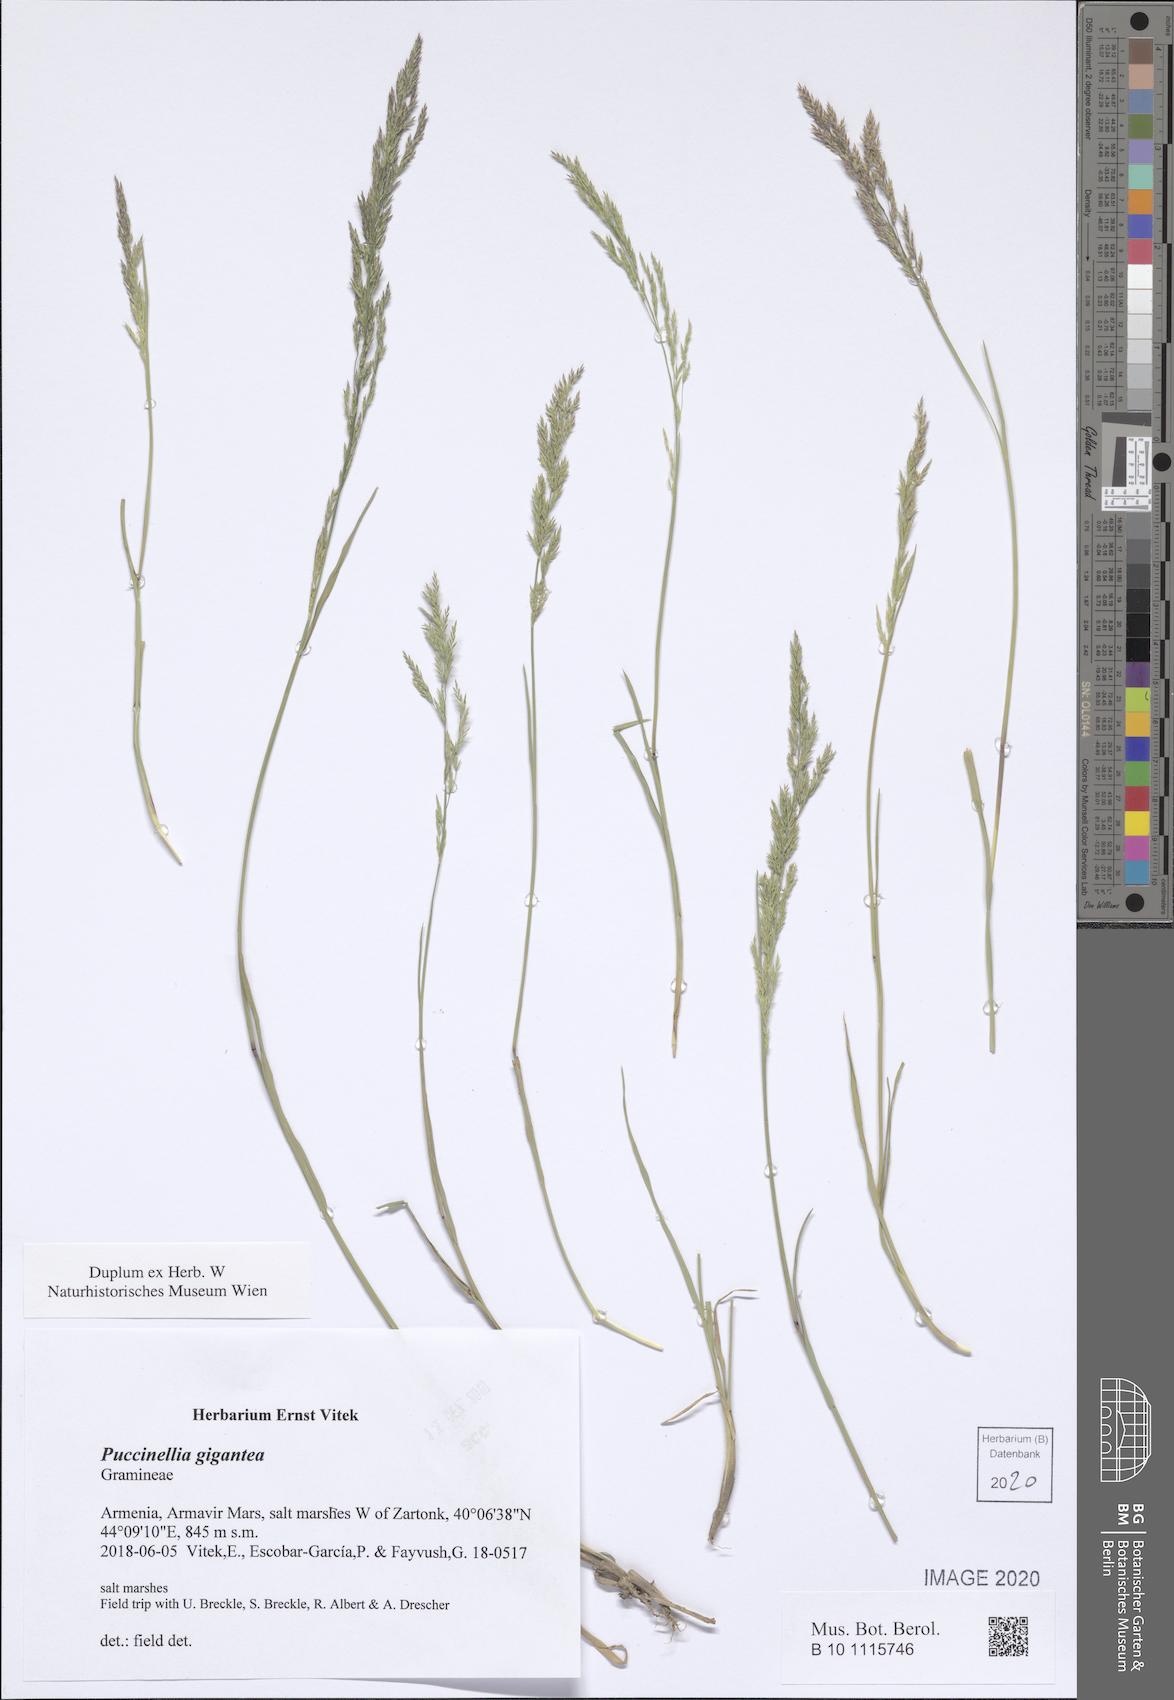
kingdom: Plantae
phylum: Tracheophyta
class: Liliopsida
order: Poales
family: Poaceae
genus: Puccinellia
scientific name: Puccinellia gigantea
